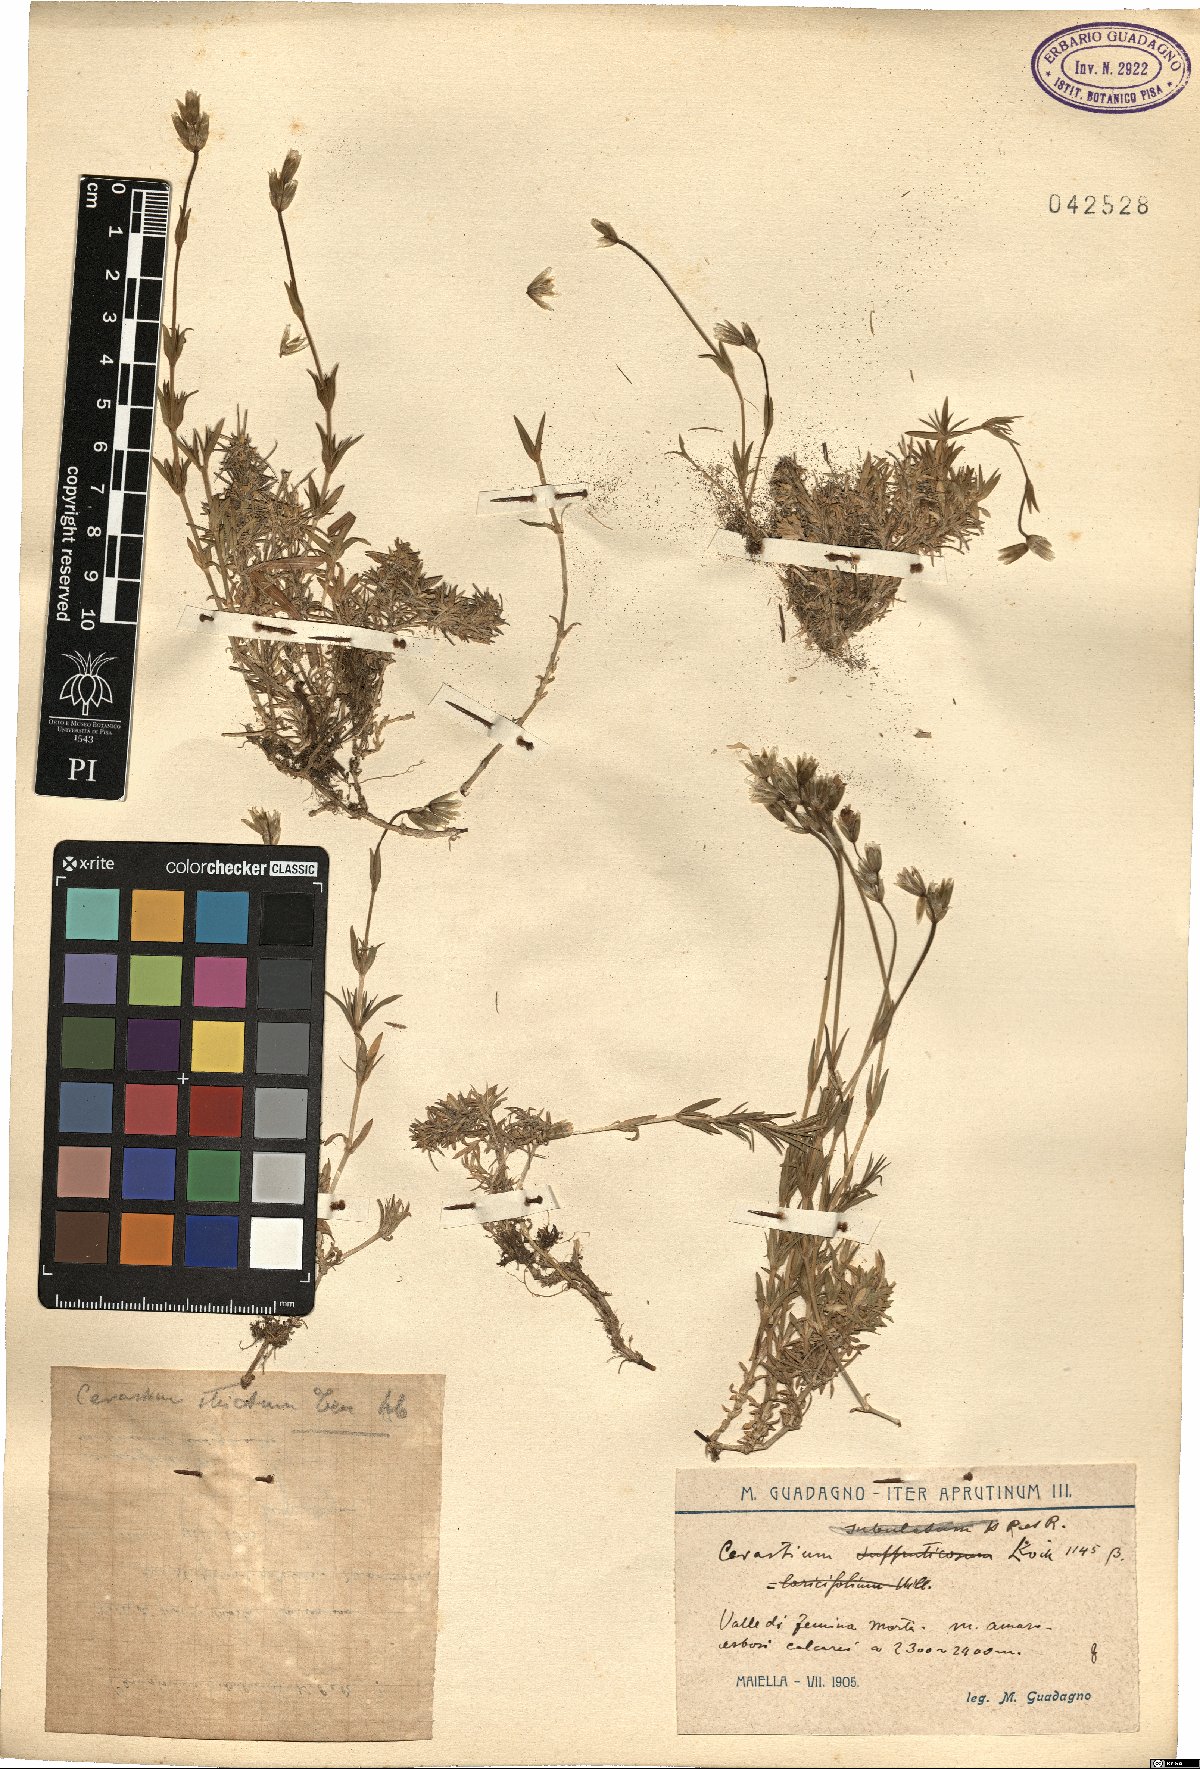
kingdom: Plantae
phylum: Tracheophyta
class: Magnoliopsida
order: Caryophyllales
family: Caryophyllaceae
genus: Cerastium
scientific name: Cerastium elongatum
